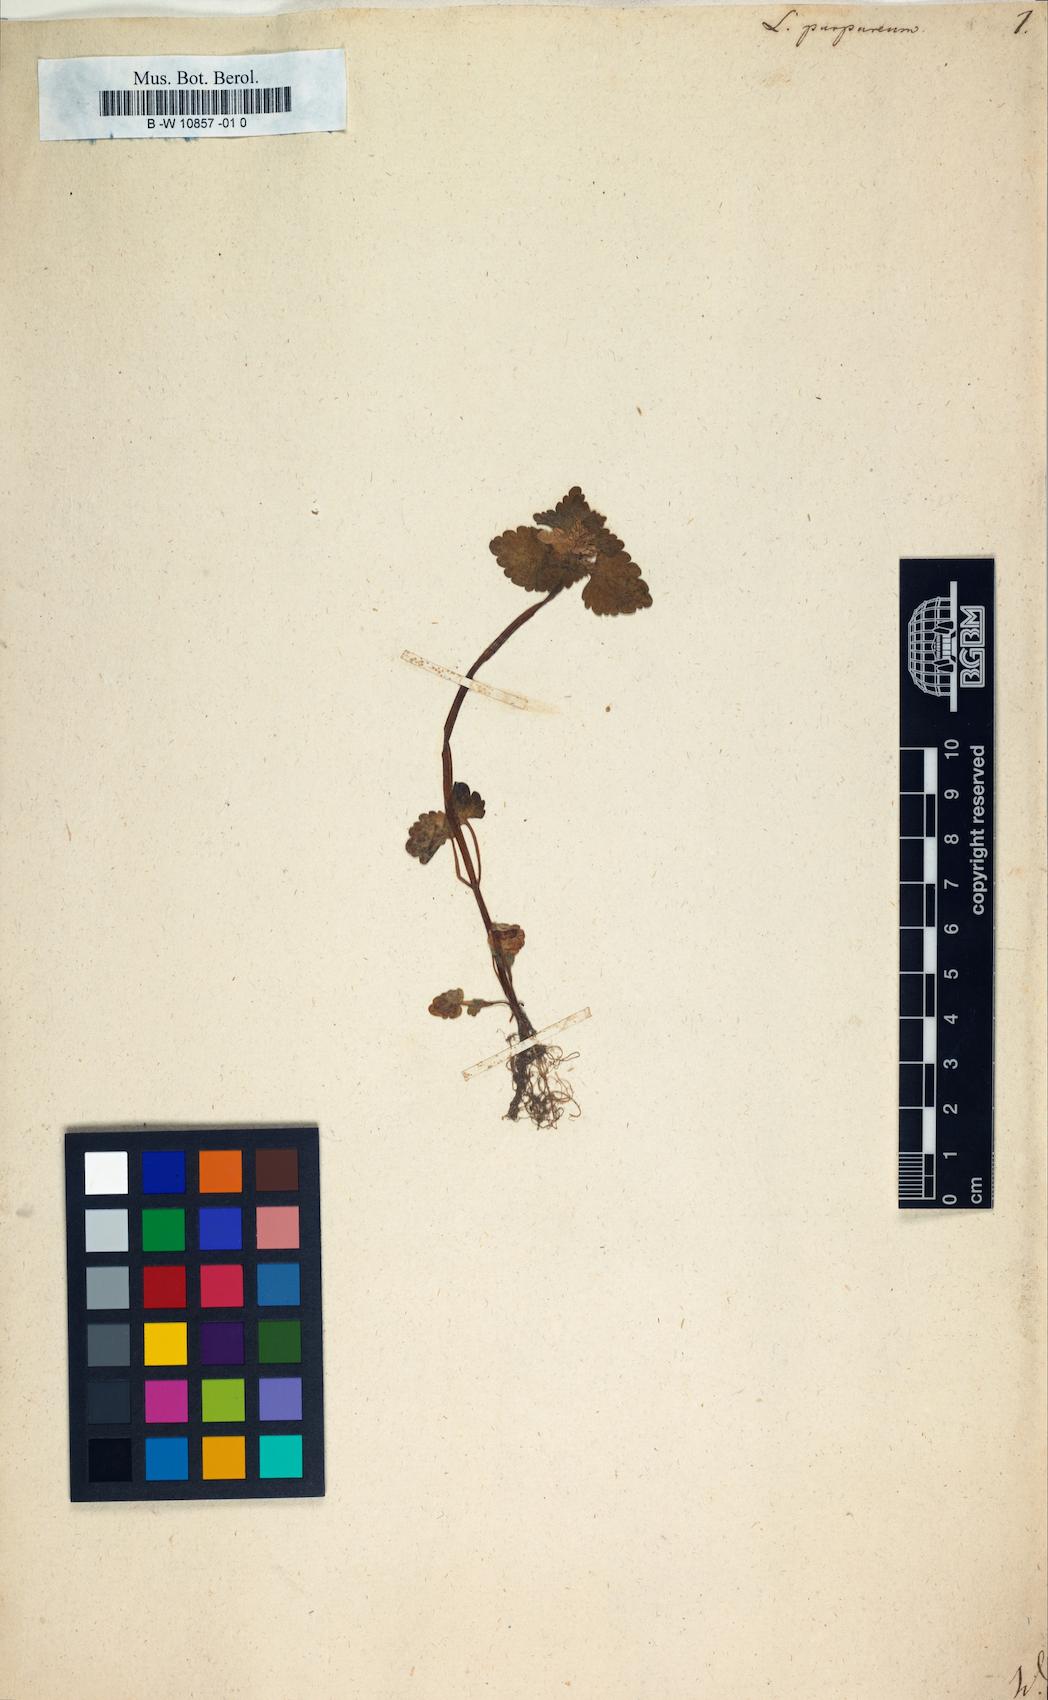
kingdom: Plantae
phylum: Tracheophyta
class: Magnoliopsida
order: Lamiales
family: Lamiaceae
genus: Lamium
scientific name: Lamium purpureum
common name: Red dead-nettle
